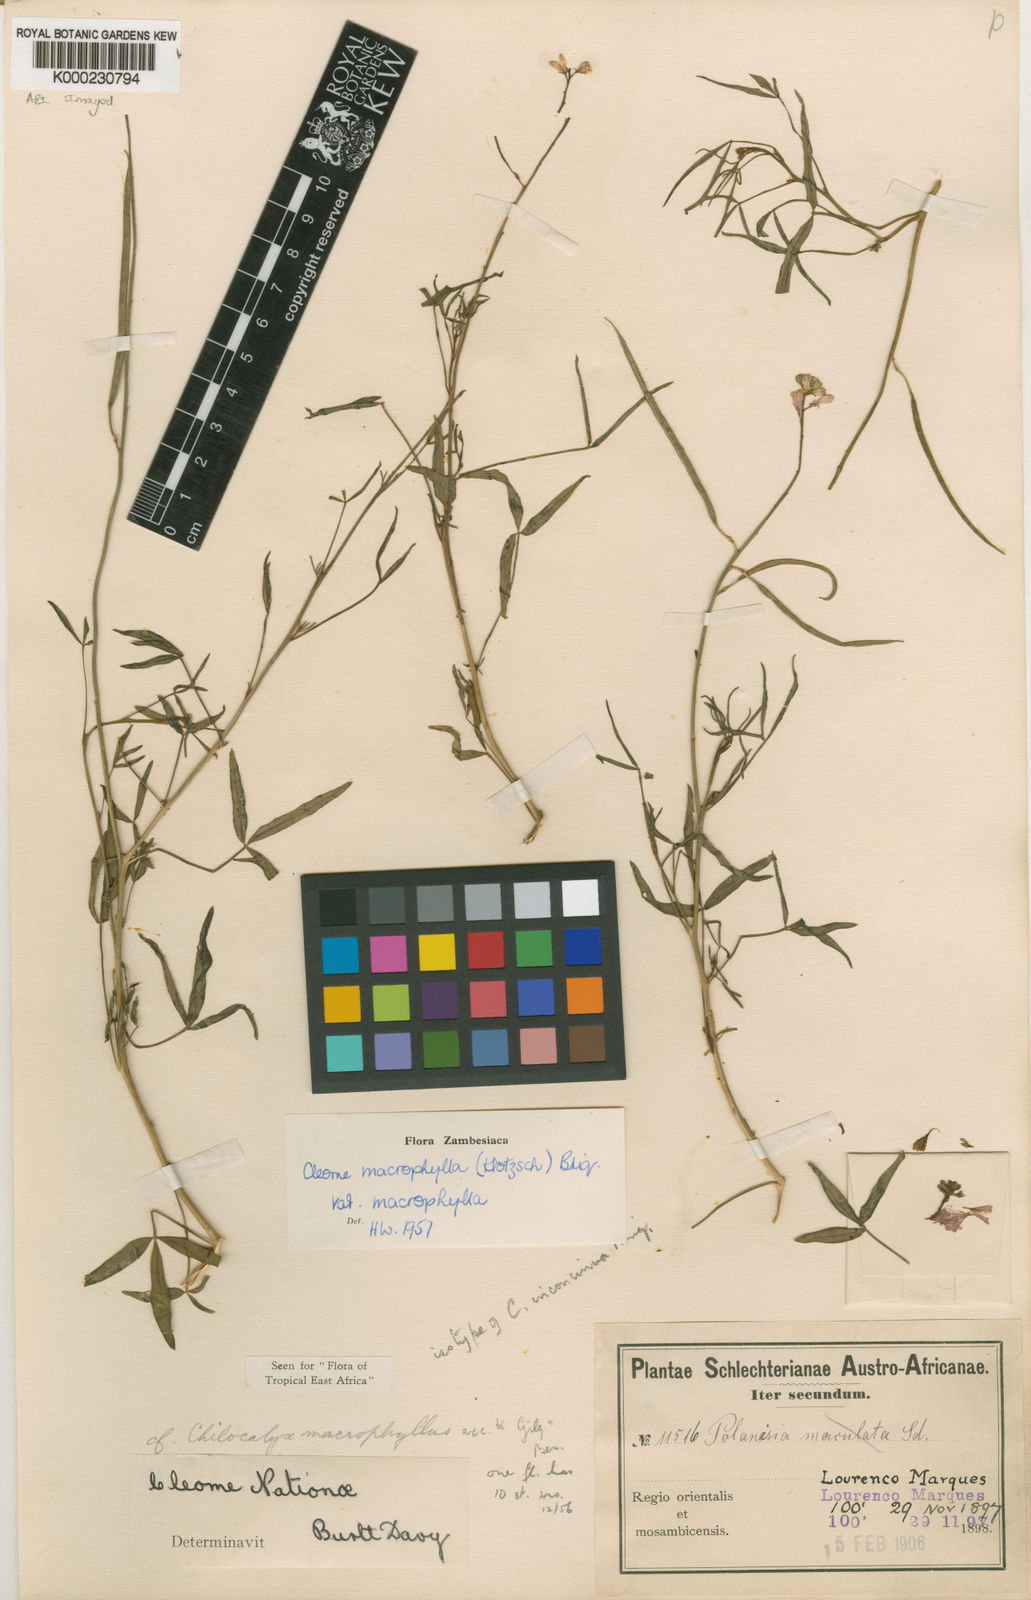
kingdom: Plantae
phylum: Tracheophyta
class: Magnoliopsida
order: Brassicales
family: Cleomaceae
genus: Sieruela
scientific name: Sieruela macrophylla
